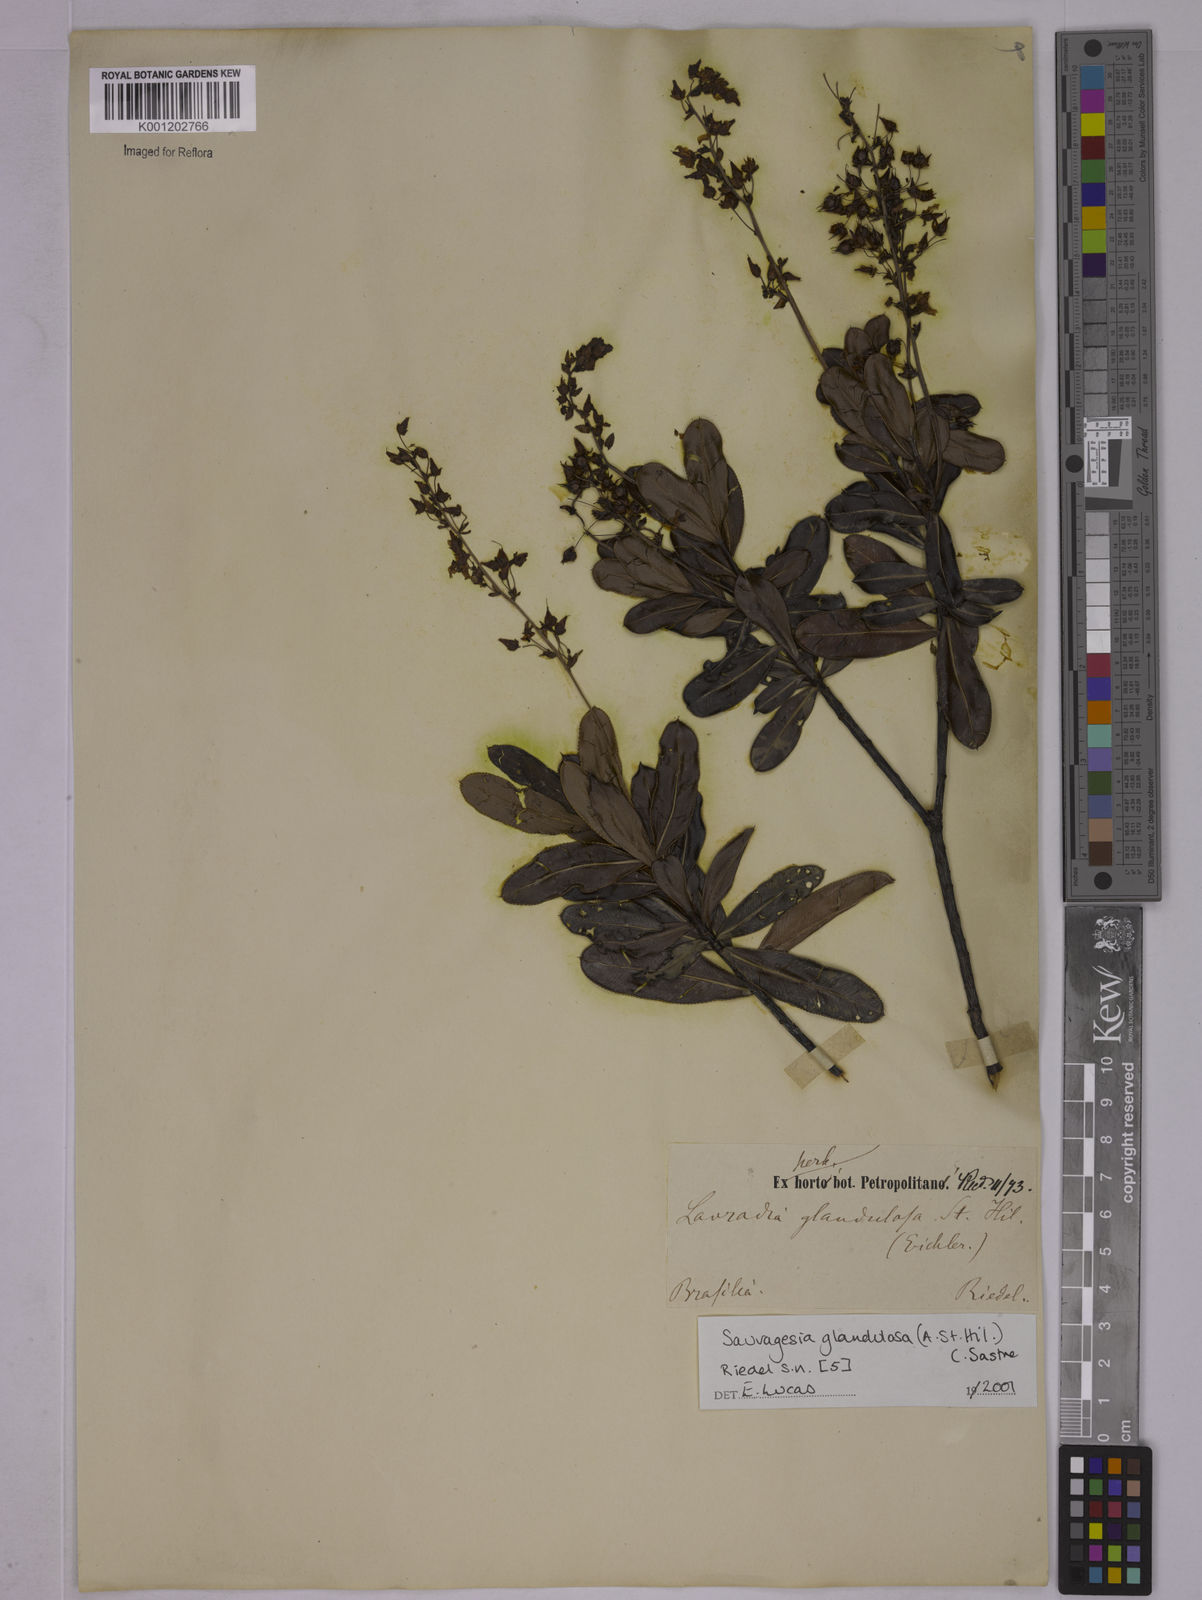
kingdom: Plantae
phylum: Tracheophyta
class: Magnoliopsida
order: Malpighiales
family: Ochnaceae
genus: Sauvagesia
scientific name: Sauvagesia elegantissima
